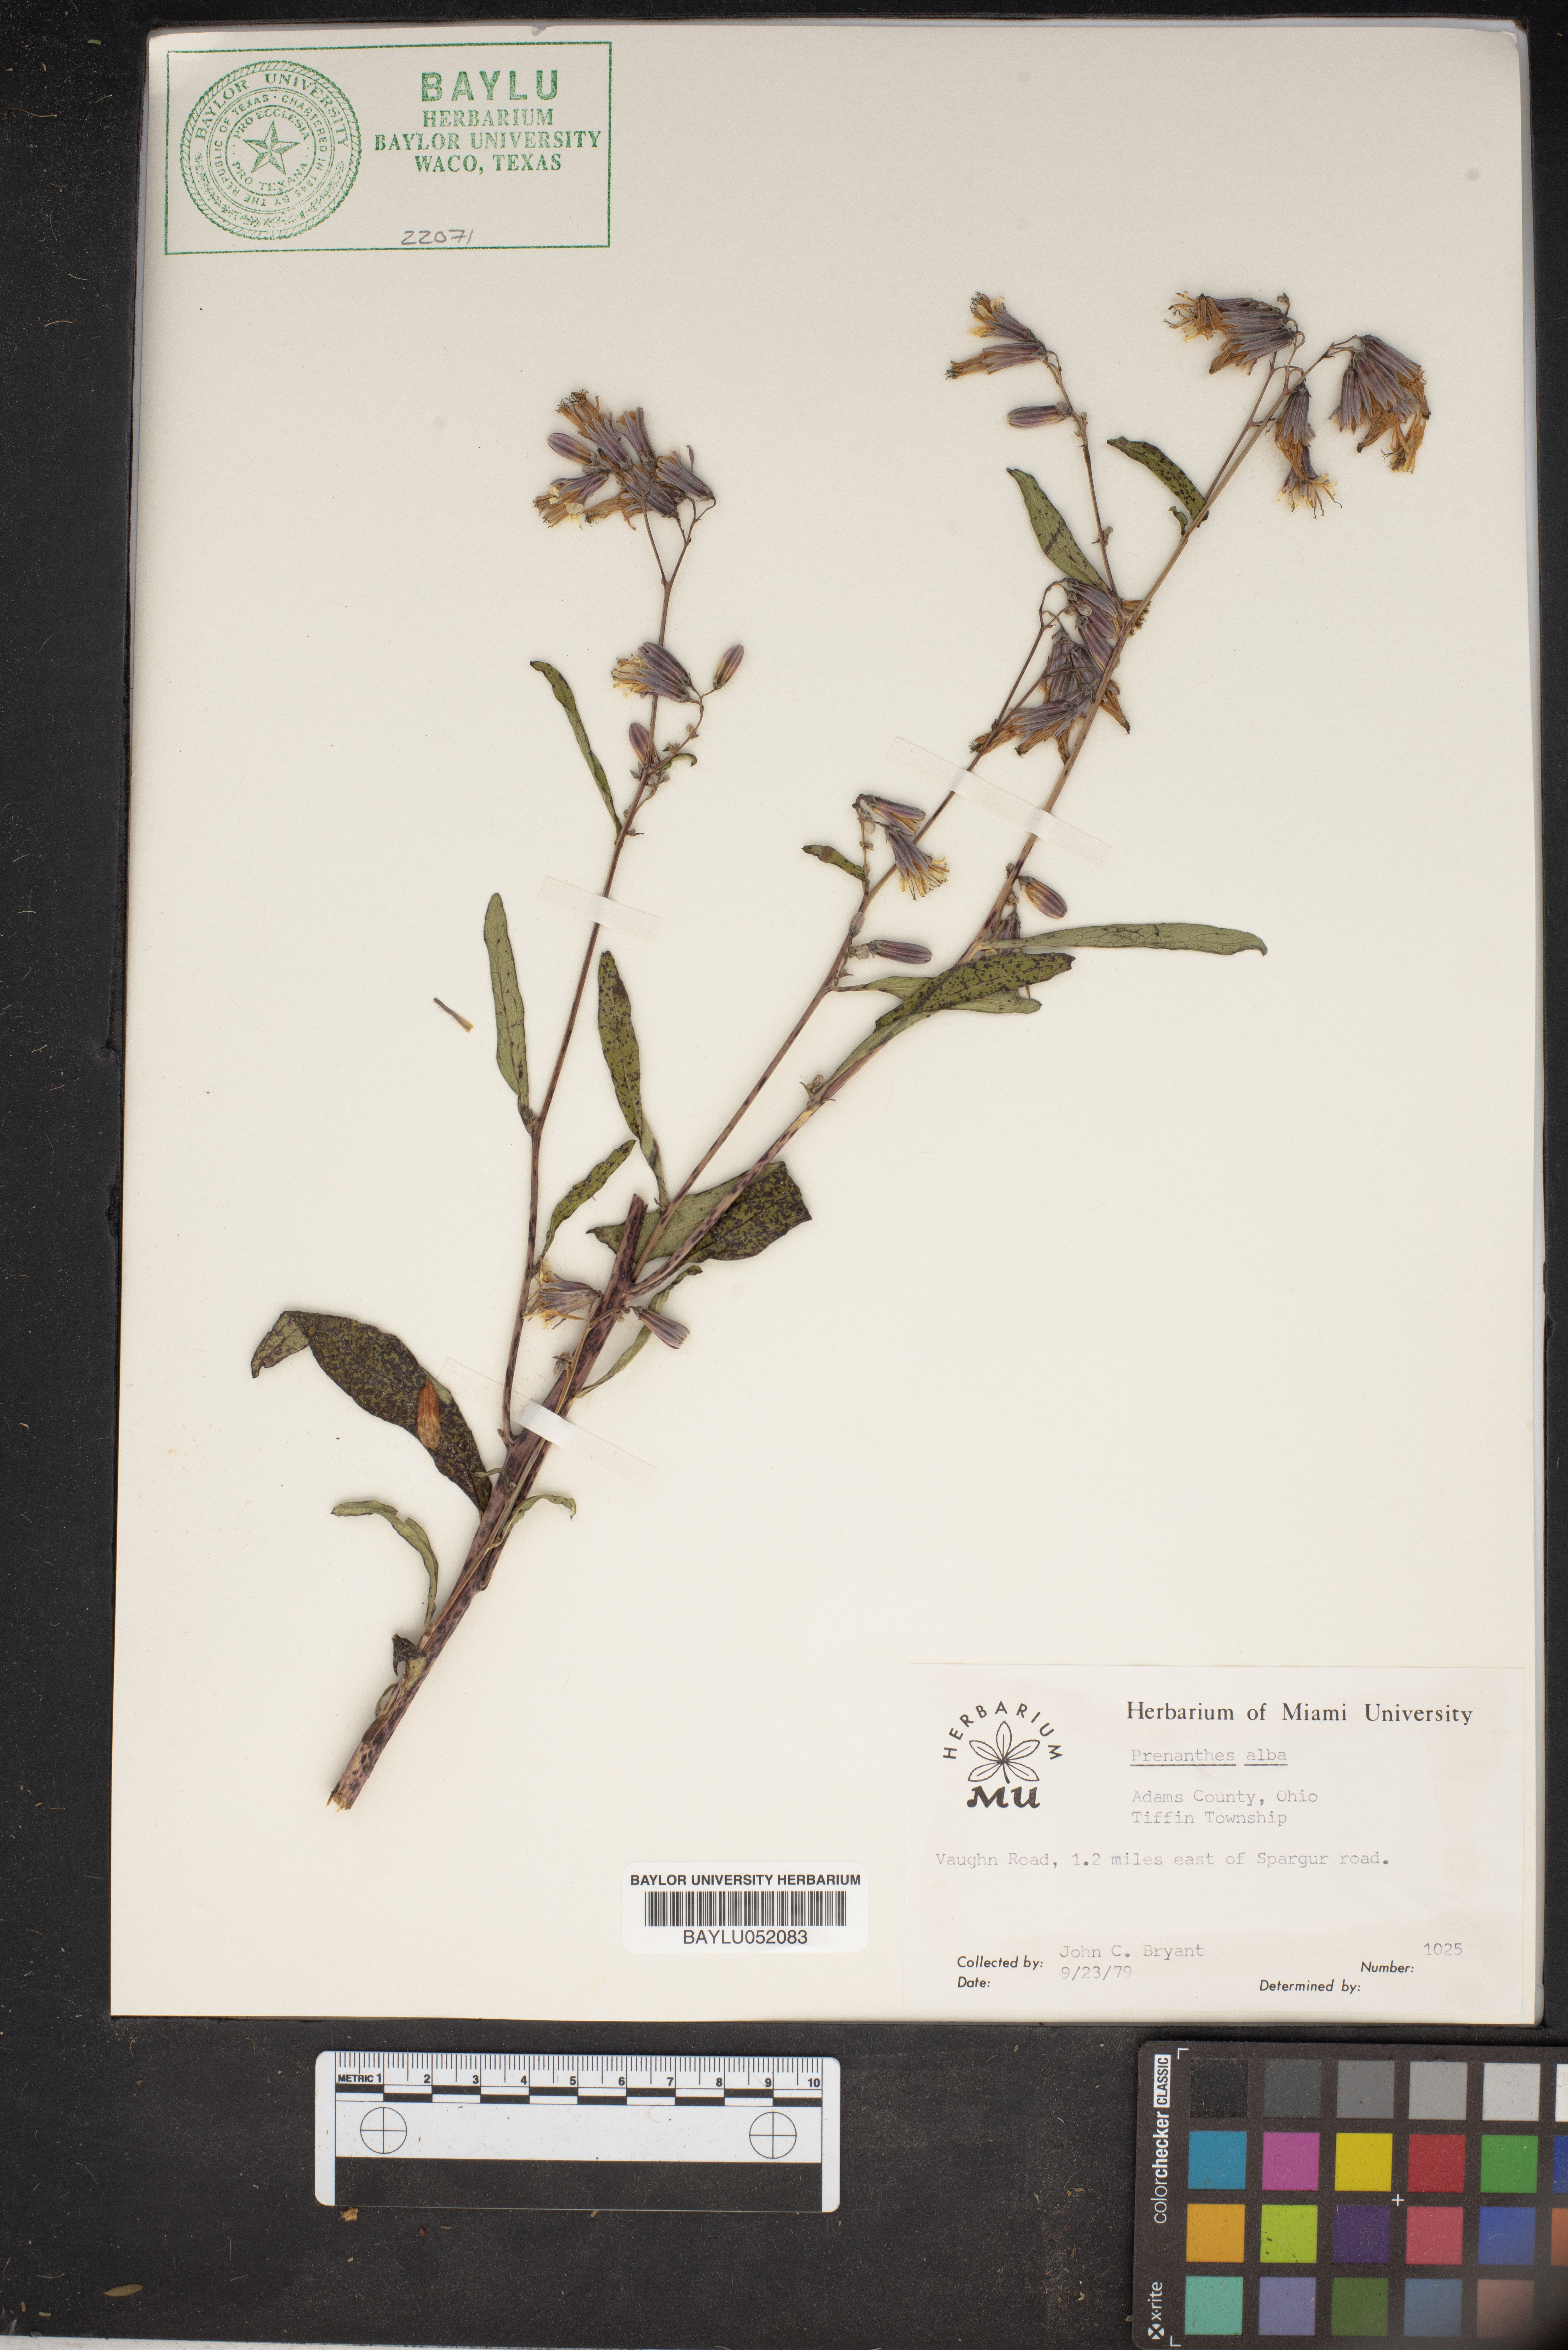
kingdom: Plantae
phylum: Tracheophyta
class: Magnoliopsida
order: Asterales
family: Asteraceae
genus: Nabalus
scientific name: Nabalus albus
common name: White rattlesnakeroot
